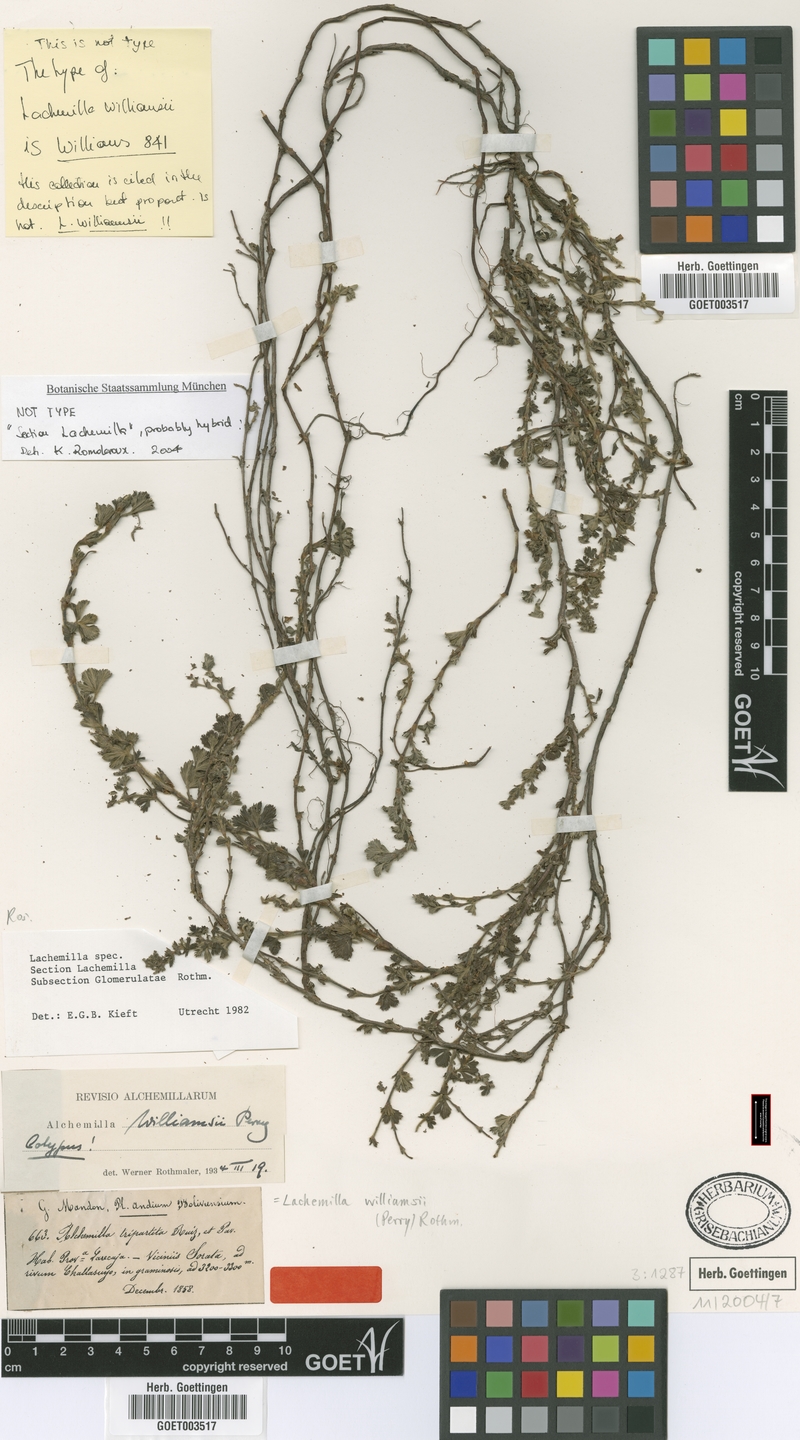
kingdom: Plantae
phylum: Tracheophyta
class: Magnoliopsida
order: Rosales
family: Rosaceae
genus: Lachemilla
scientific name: Lachemilla williamsii
